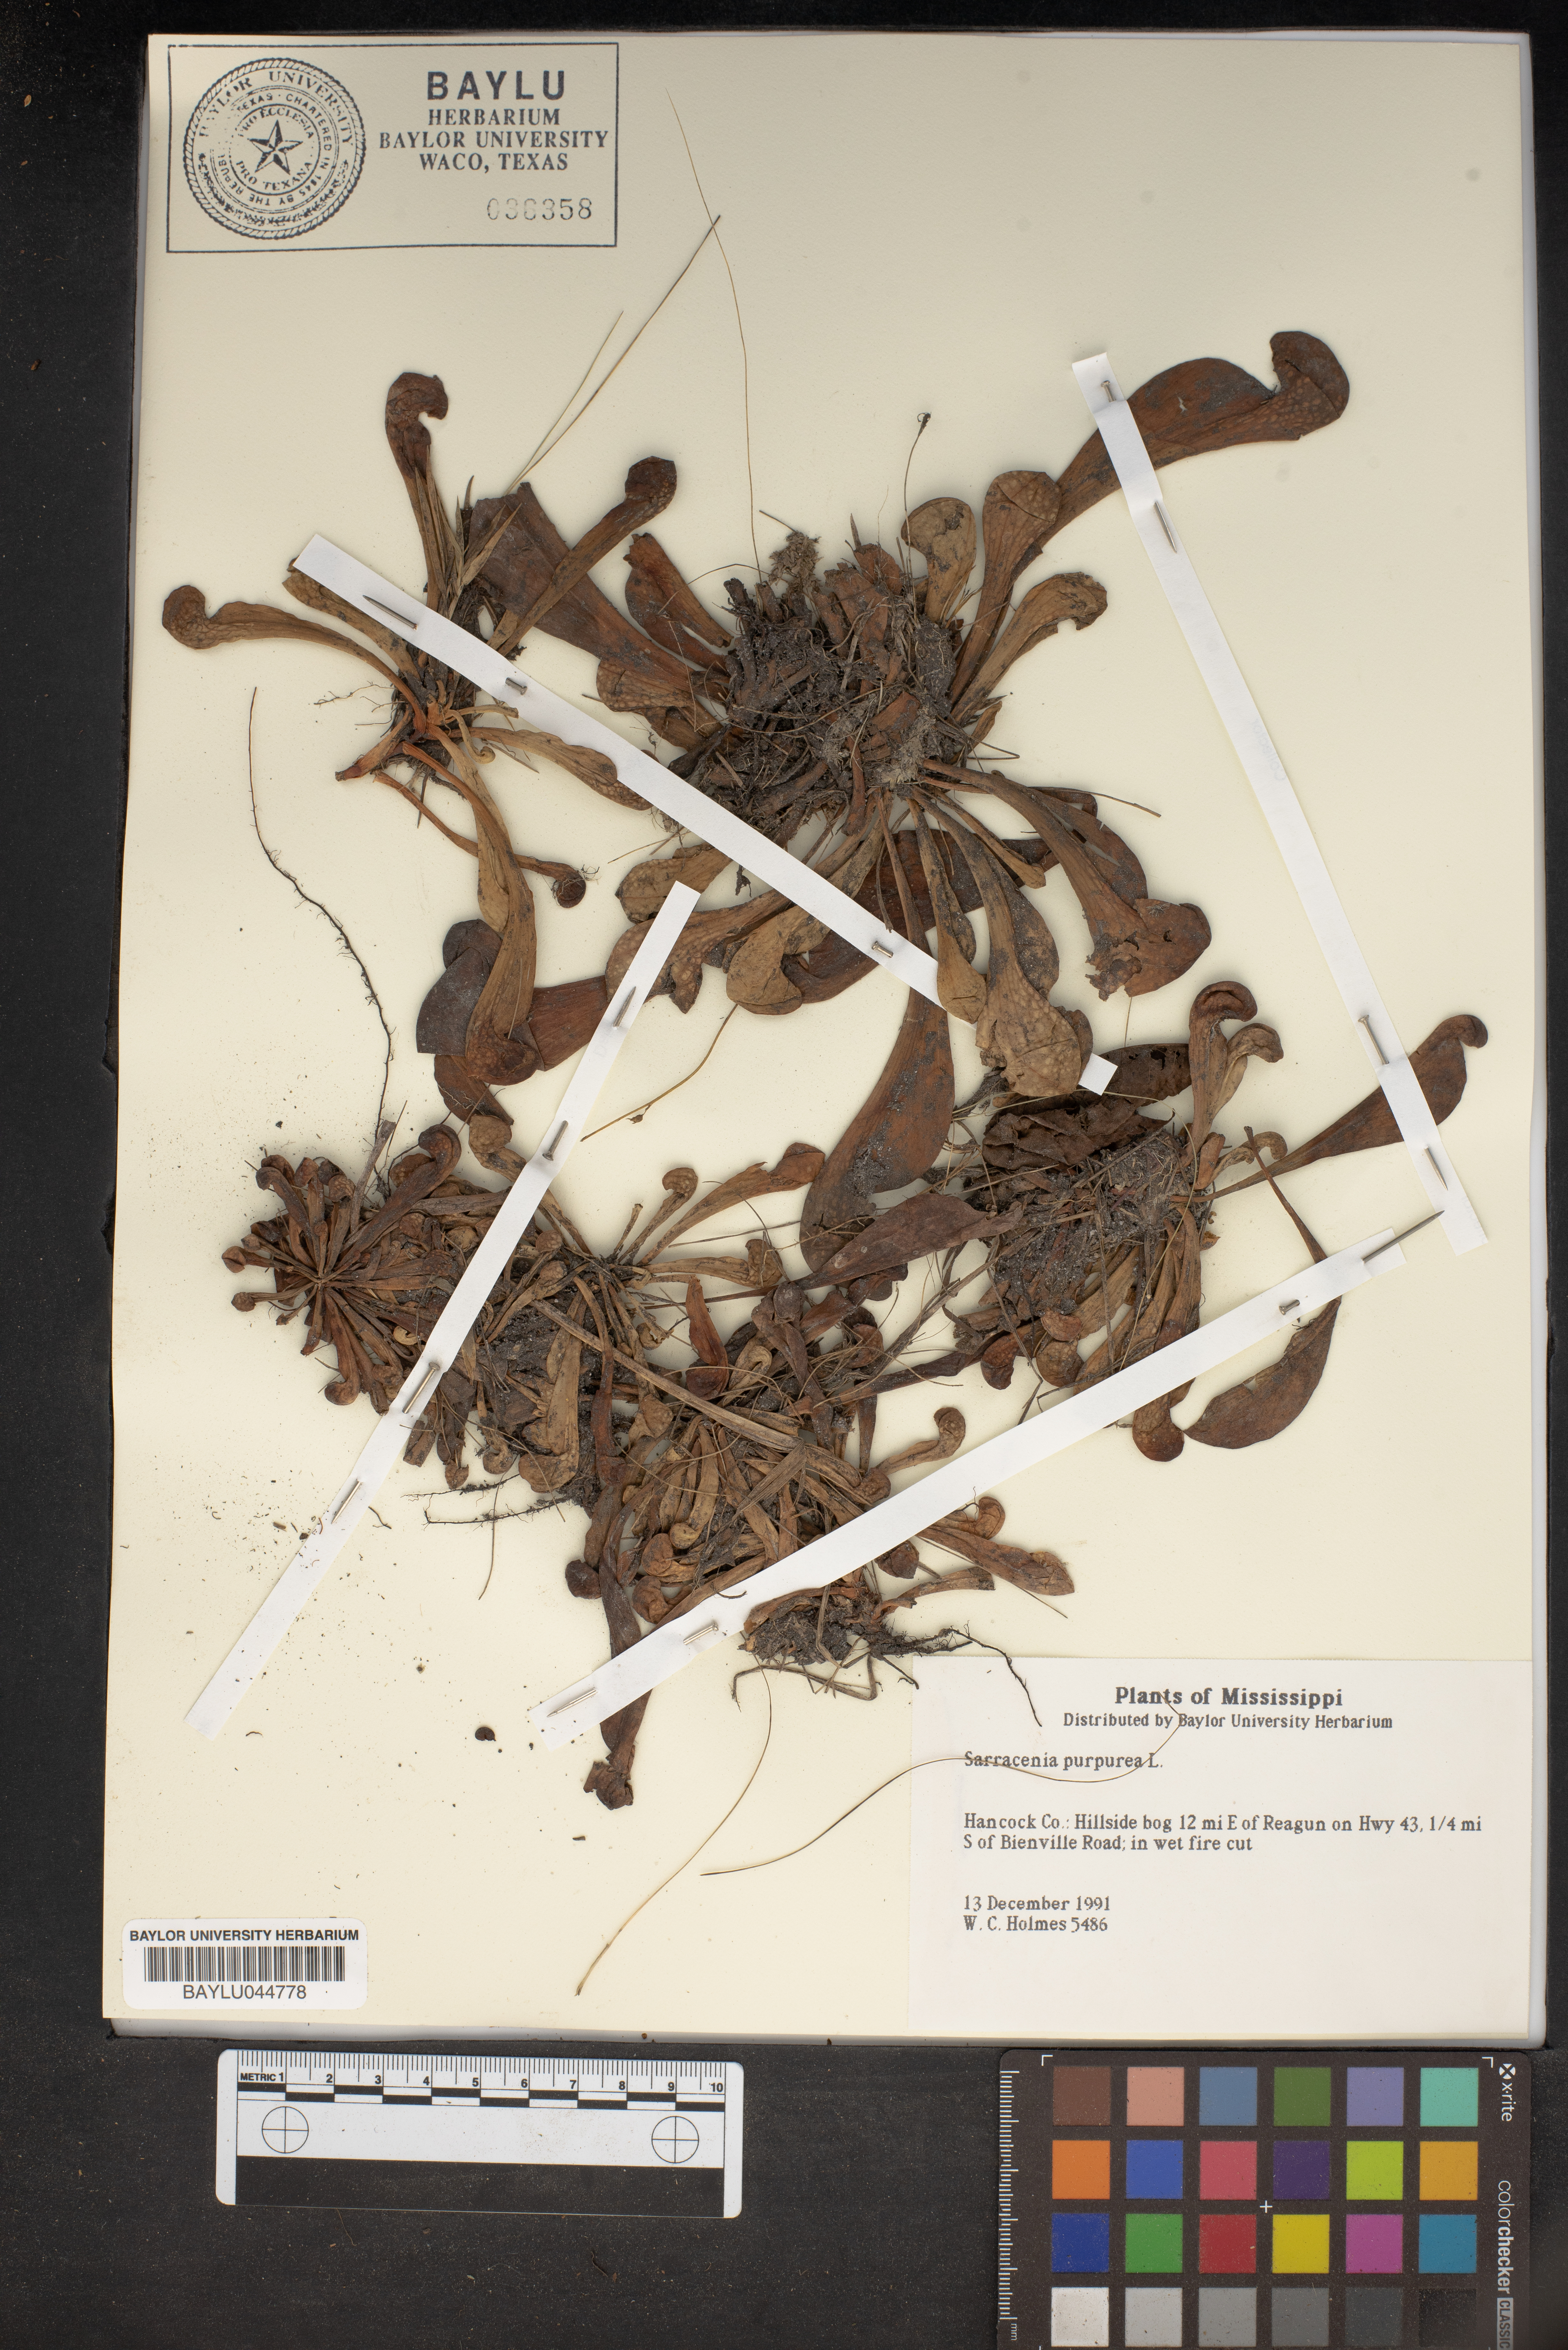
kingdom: Plantae
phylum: Tracheophyta
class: Magnoliopsida
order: Ericales
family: Sarraceniaceae
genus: Sarracenia
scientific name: Sarracenia purpurea
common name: Pitcherplant
